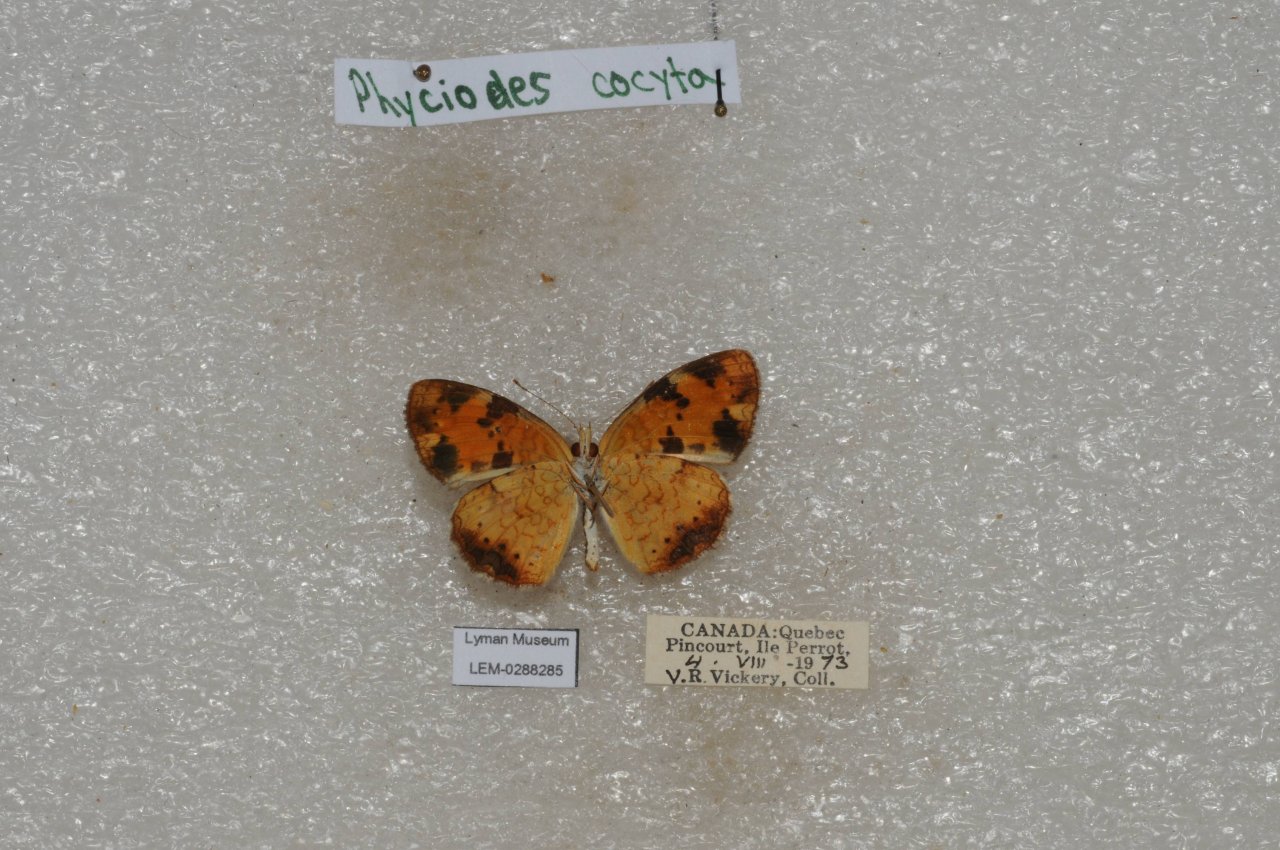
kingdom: Animalia
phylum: Arthropoda
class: Insecta
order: Lepidoptera
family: Nymphalidae
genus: Phyciodes
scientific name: Phyciodes tharos
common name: Northern Crescent
